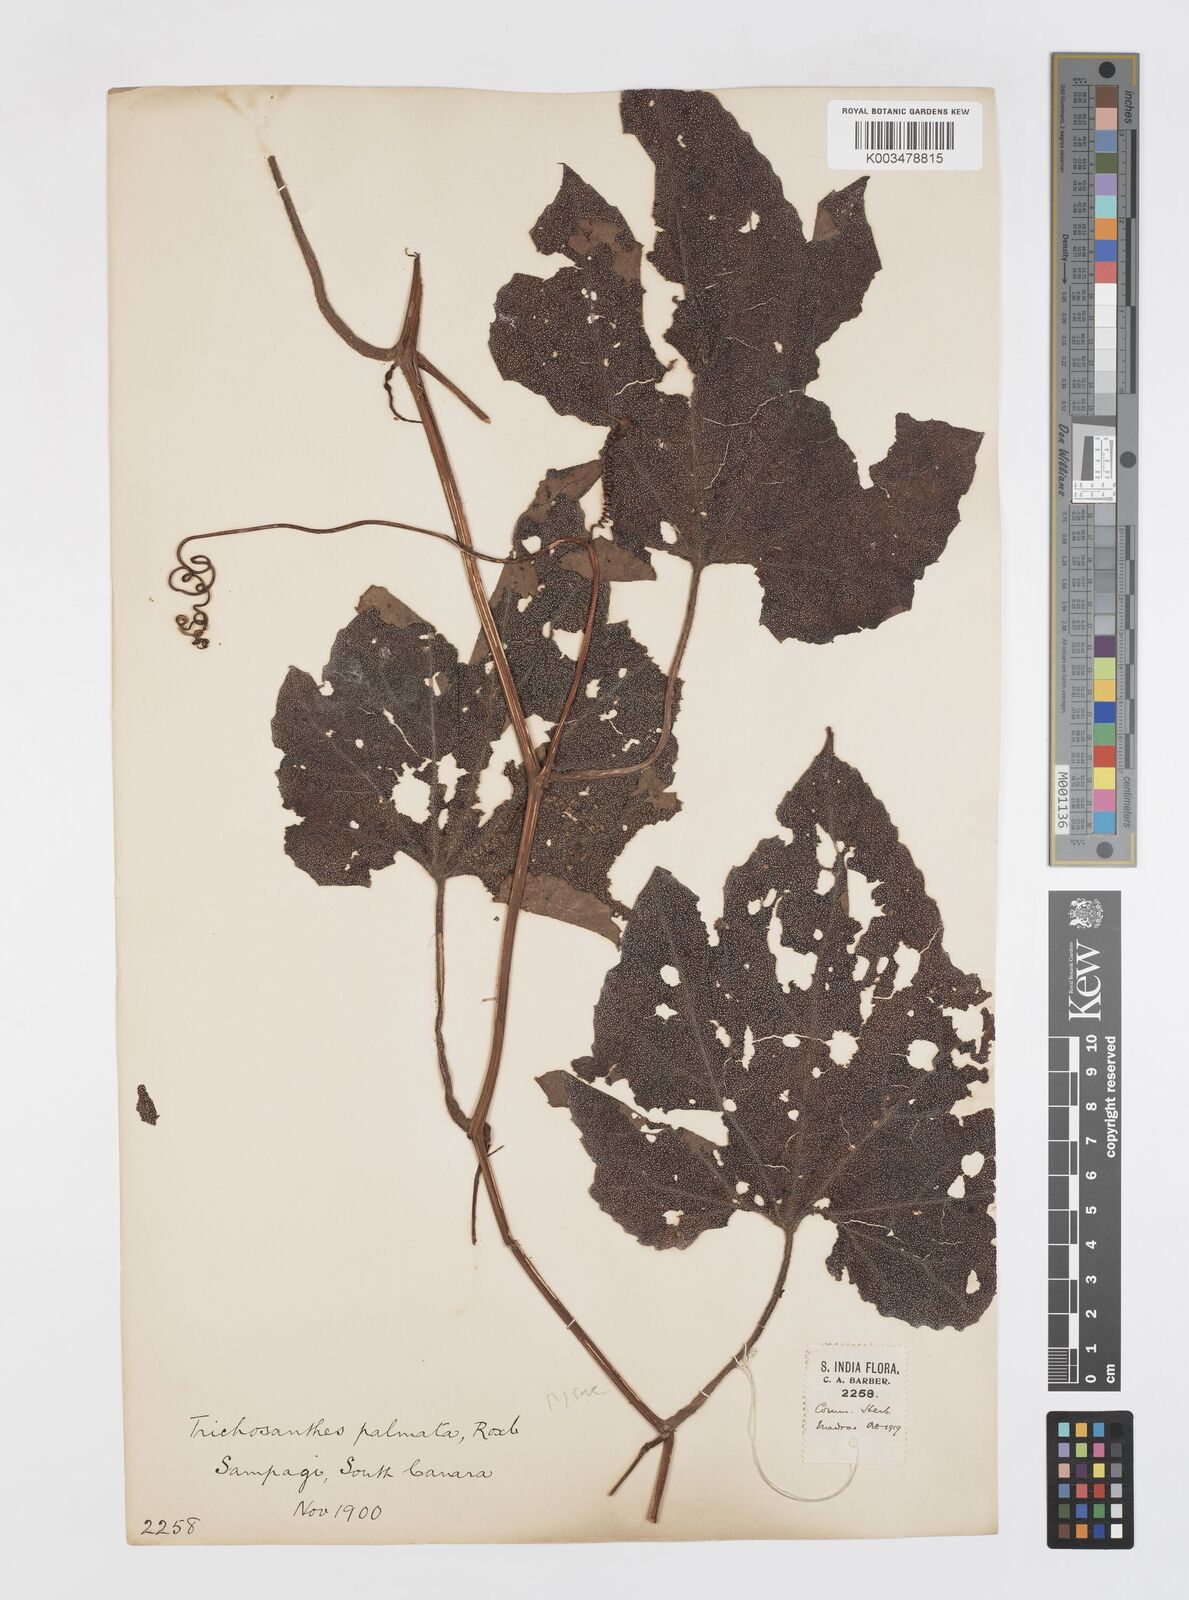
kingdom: Plantae
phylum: Tracheophyta
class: Magnoliopsida
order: Cucurbitales
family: Cucurbitaceae
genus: Trichosanthes
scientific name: Trichosanthes anaimalaiensis
